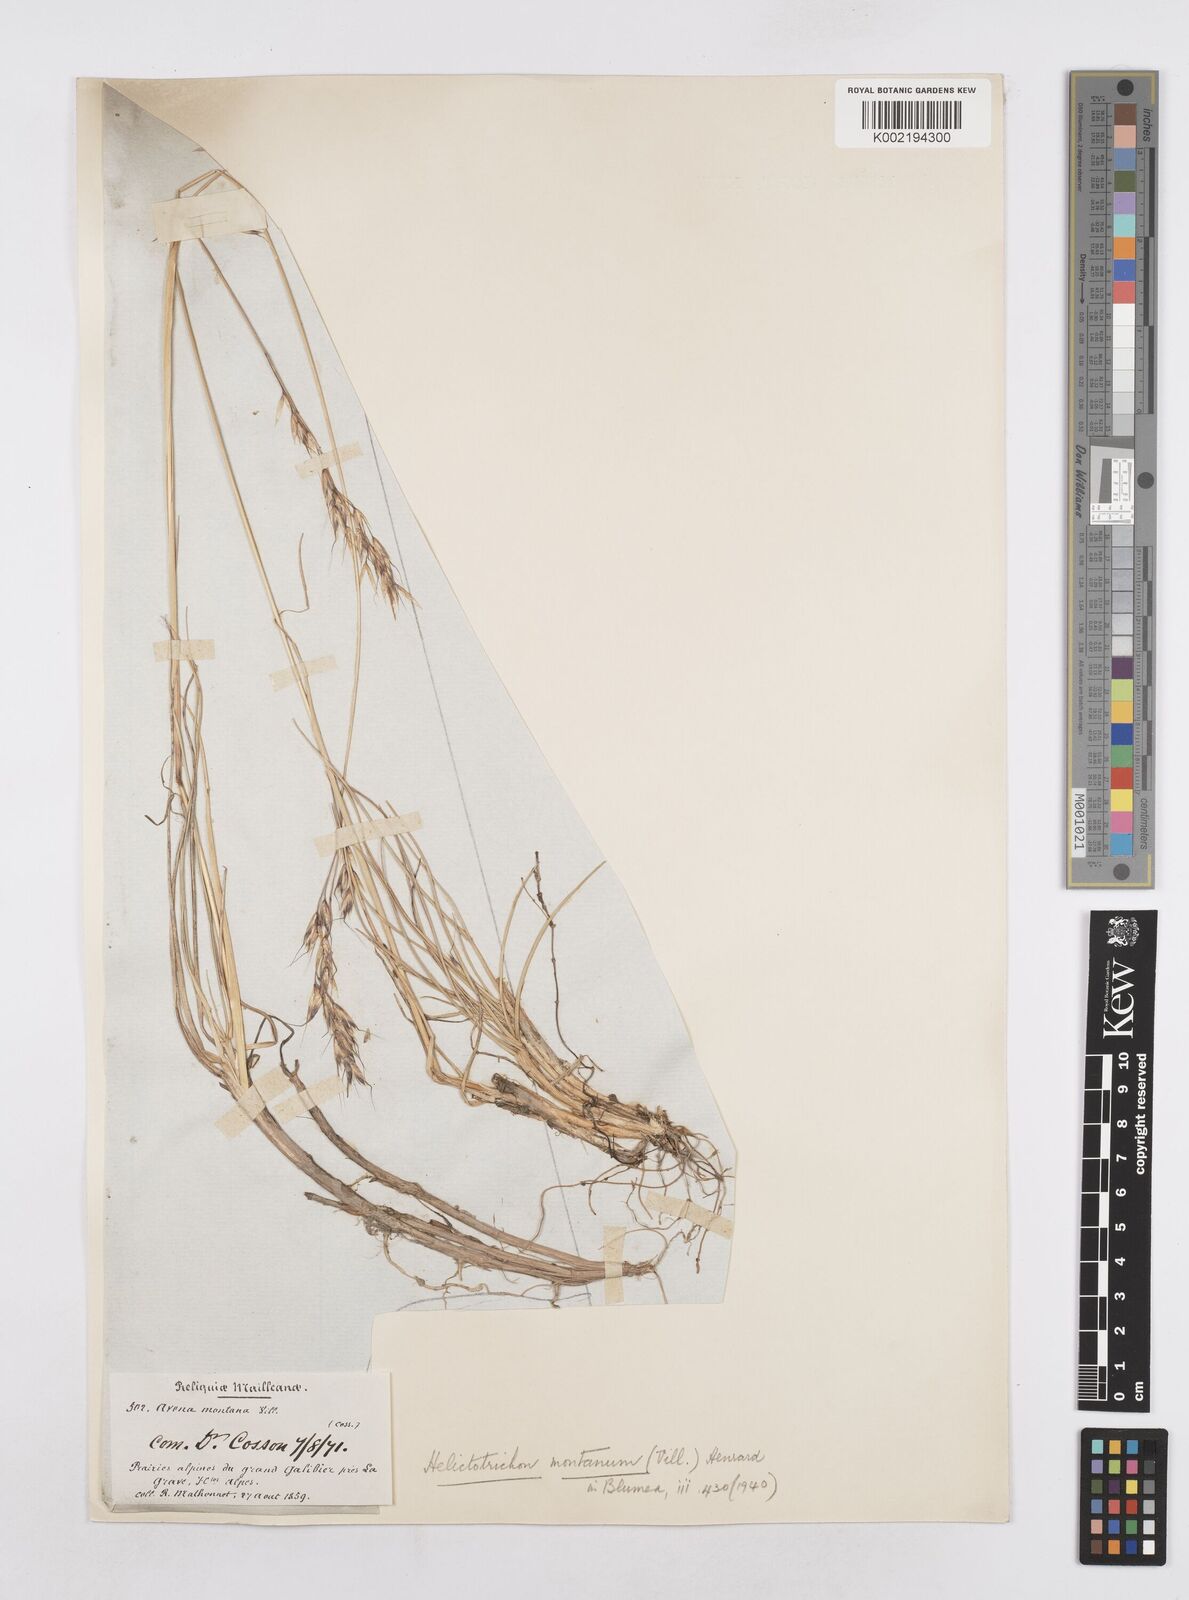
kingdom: Plantae
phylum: Tracheophyta
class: Liliopsida
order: Poales
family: Poaceae
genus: Helictotrichon
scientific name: Helictotrichon sedenense
